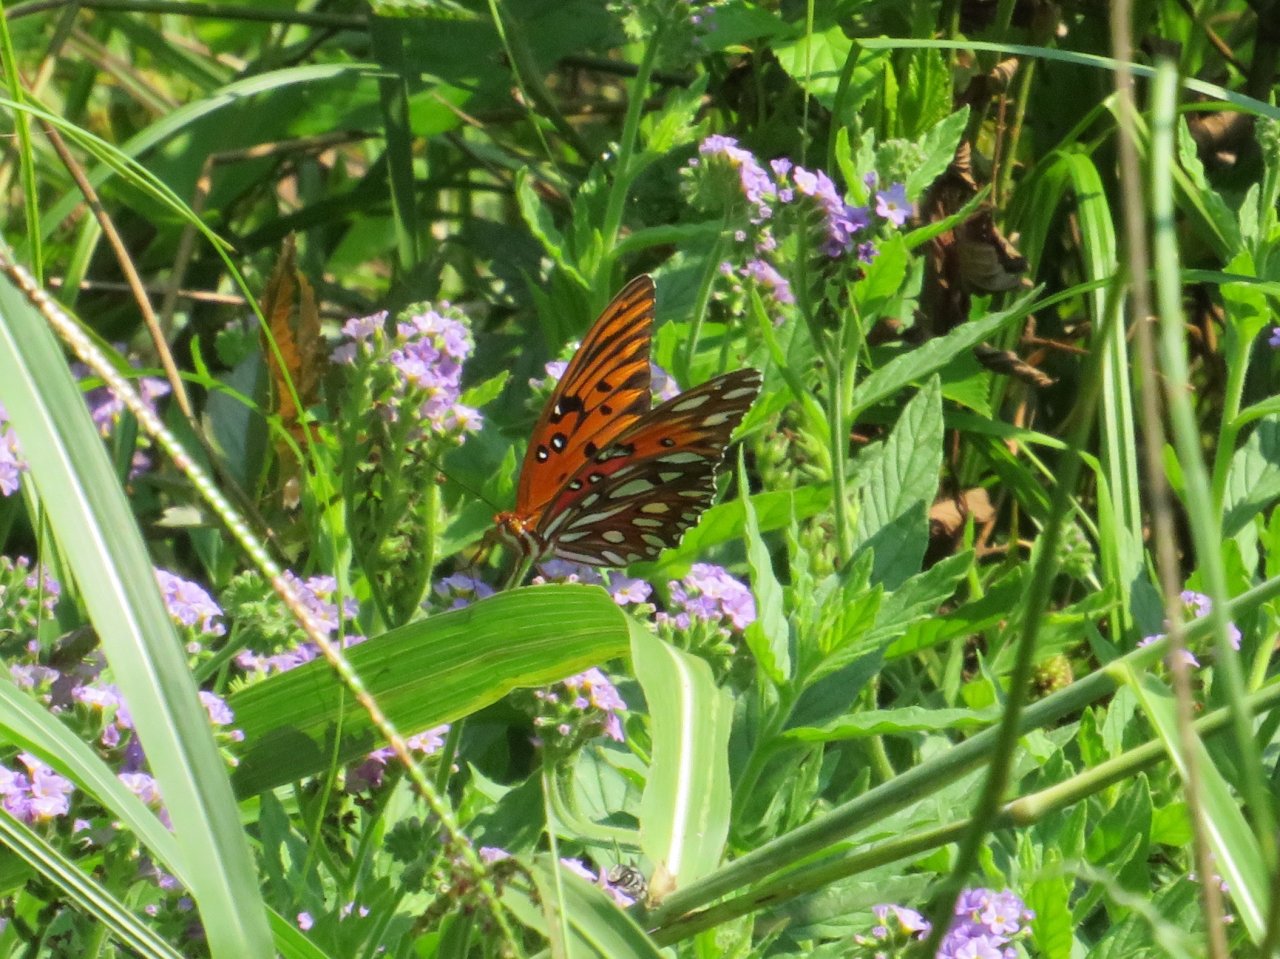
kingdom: Animalia
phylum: Arthropoda
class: Insecta
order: Lepidoptera
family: Nymphalidae
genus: Dione
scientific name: Dione vanillae
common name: Gulf Fritillary
